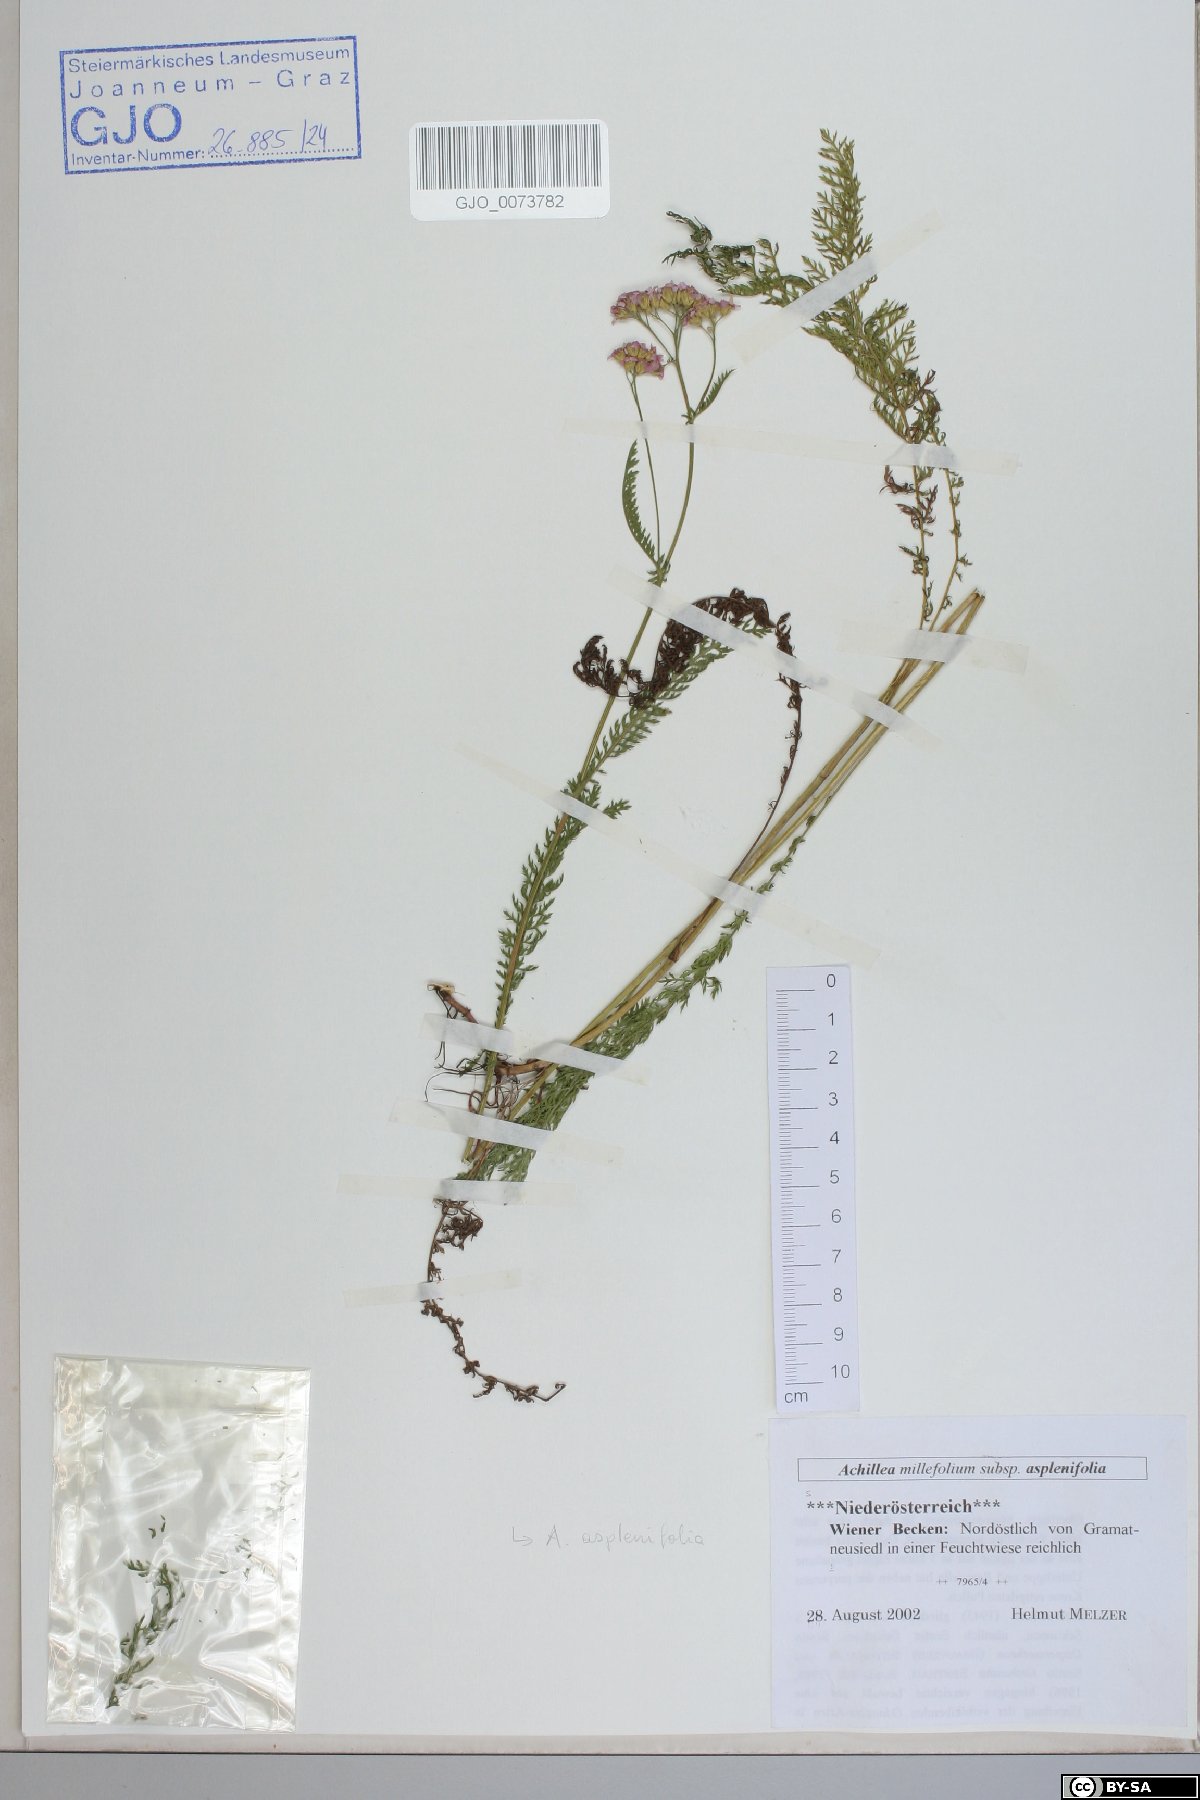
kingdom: Plantae
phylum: Tracheophyta
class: Magnoliopsida
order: Asterales
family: Asteraceae
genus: Achillea
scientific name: Achillea millefolium
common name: Yarrow
